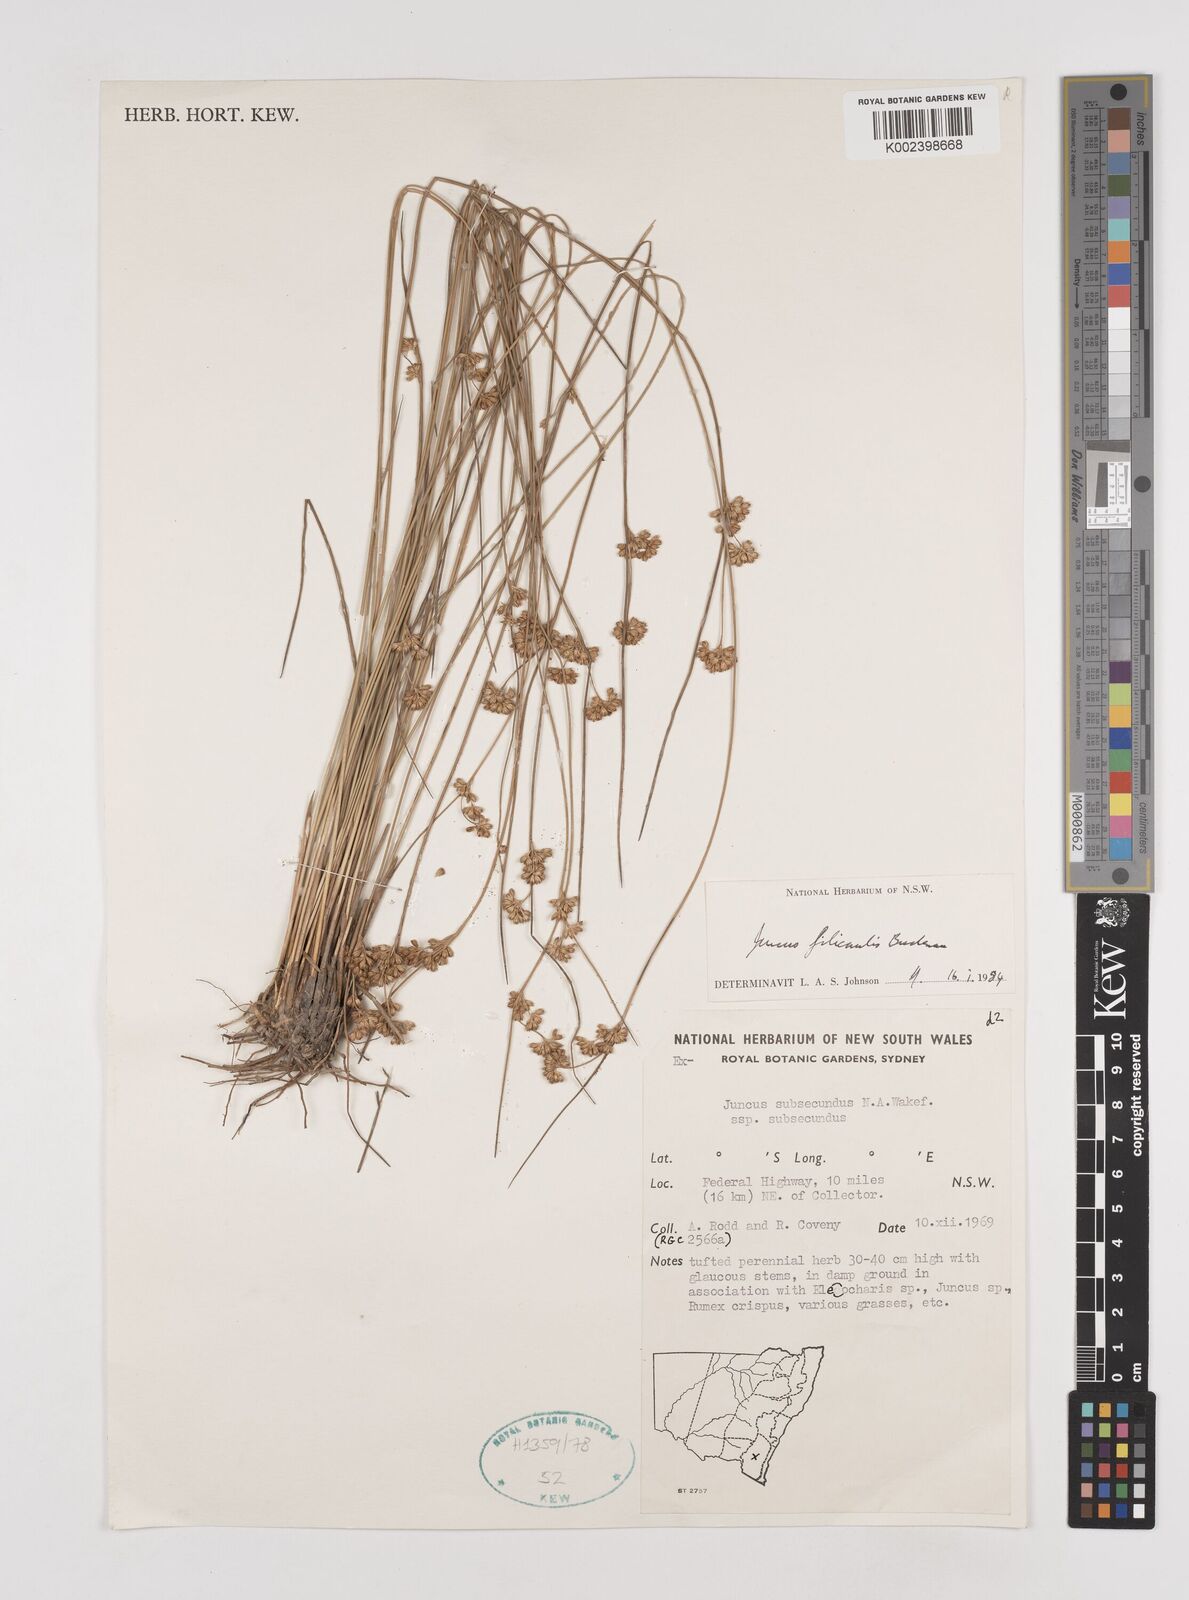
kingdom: Plantae
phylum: Tracheophyta
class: Liliopsida
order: Poales
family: Juncaceae
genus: Juncus
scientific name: Juncus filicaulis
